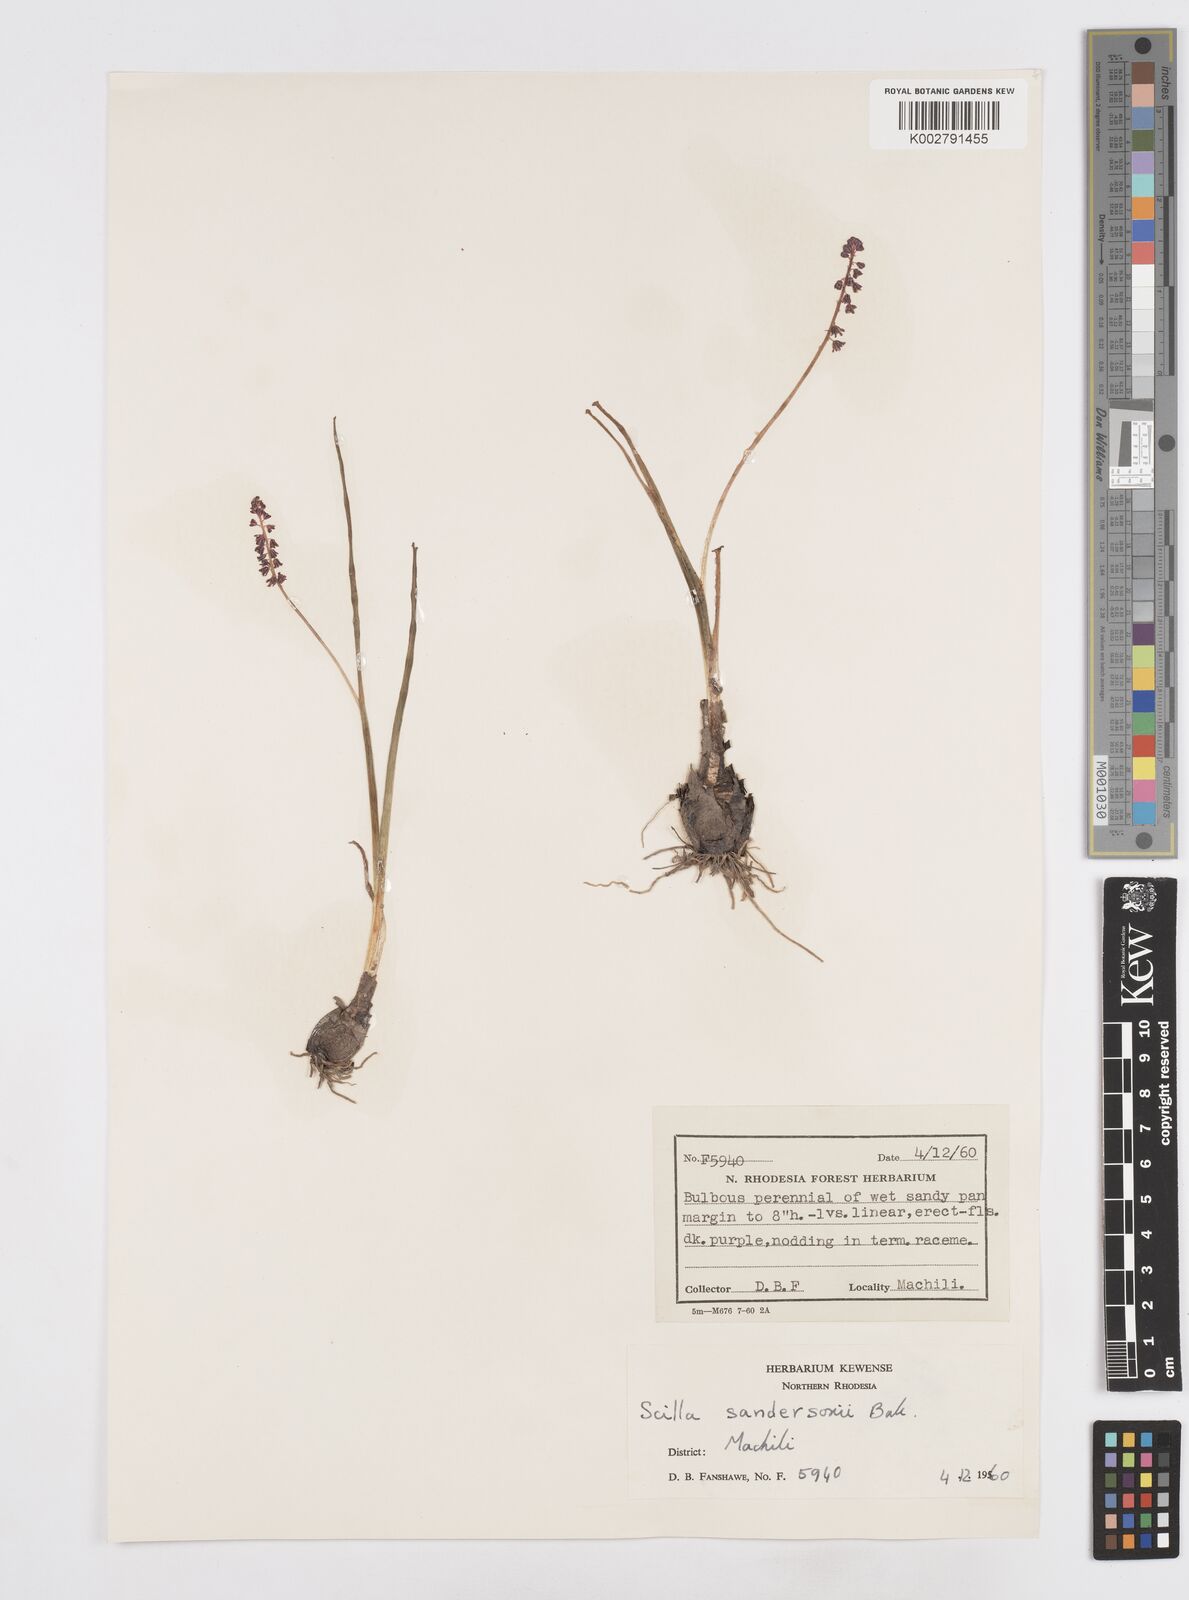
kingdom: Plantae
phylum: Tracheophyta
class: Liliopsida
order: Asparagales
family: Asparagaceae
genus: Ledebouria
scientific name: Ledebouria sandersonii
